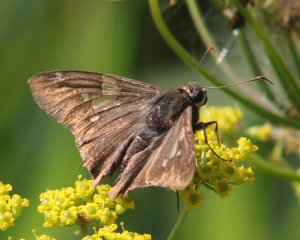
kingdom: Animalia
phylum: Arthropoda
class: Insecta
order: Lepidoptera
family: Hesperiidae
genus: Epargyreus
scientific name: Epargyreus clarus
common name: Silver-spotted Skipper
